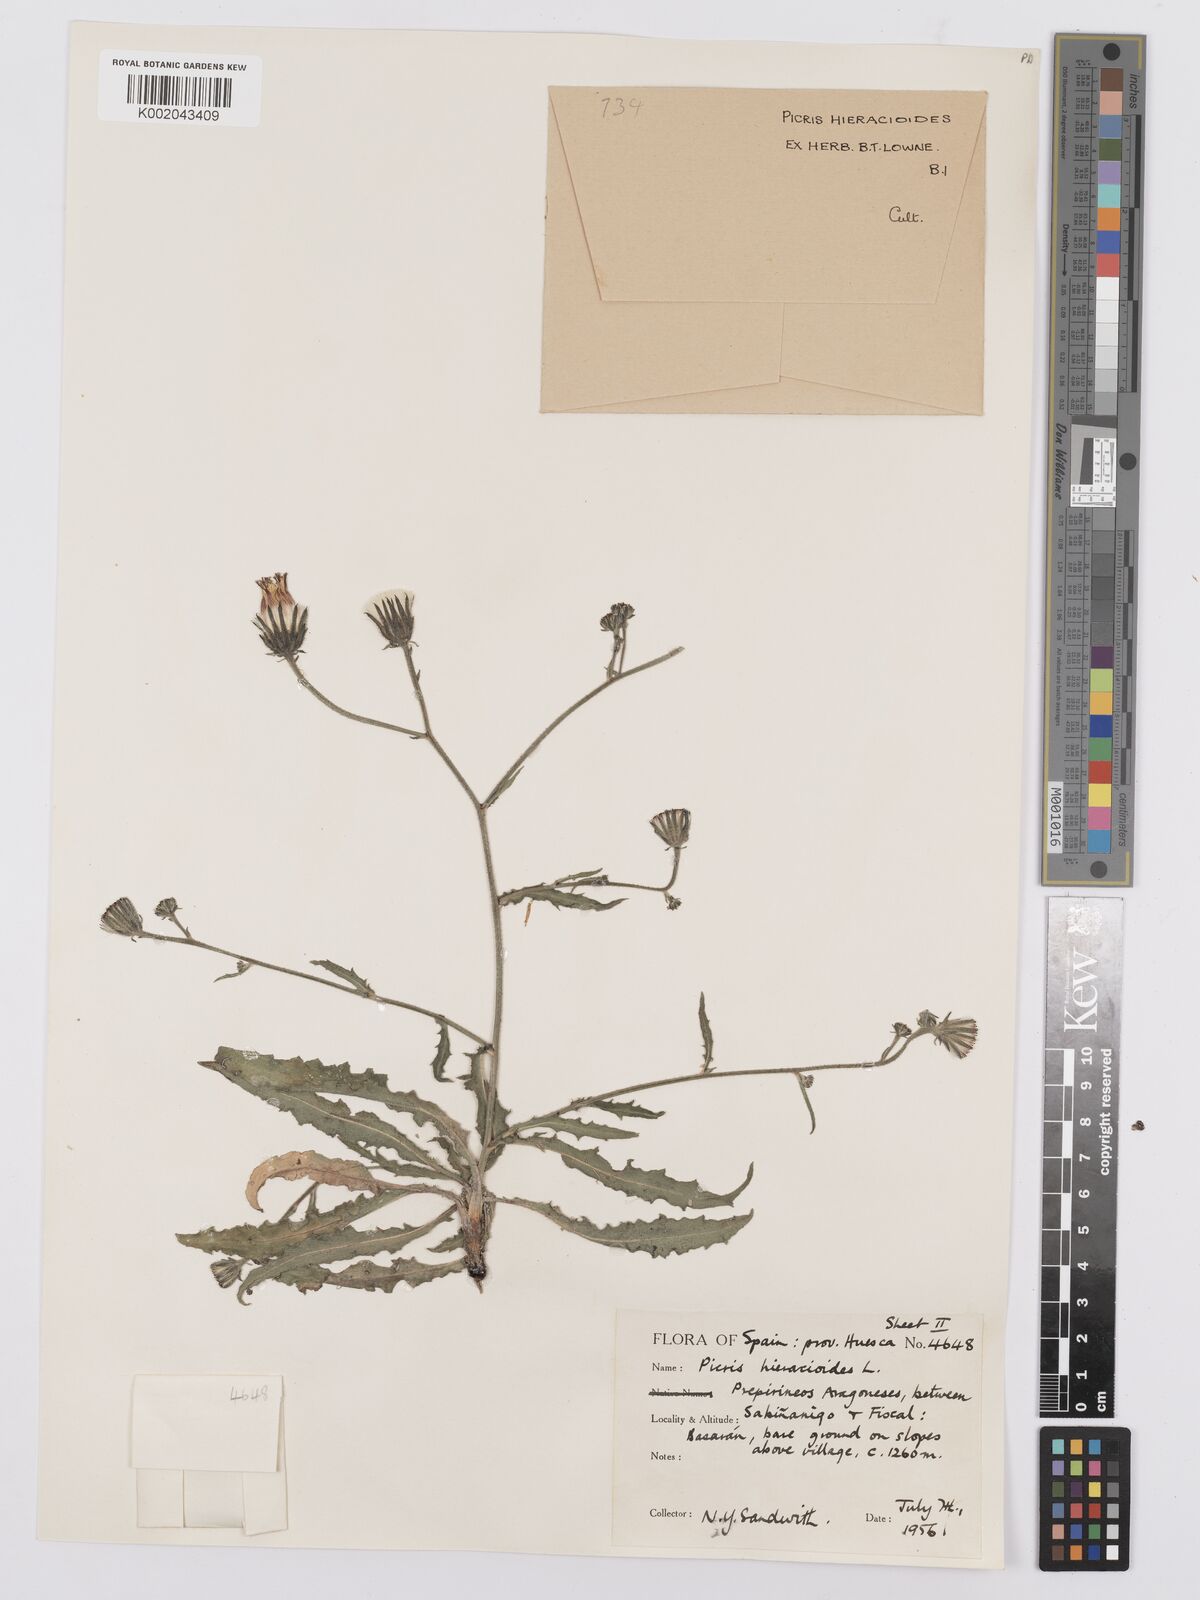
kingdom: Plantae
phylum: Tracheophyta
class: Magnoliopsida
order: Asterales
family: Asteraceae
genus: Picris
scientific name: Picris hieracioides
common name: Hawkweed oxtongue
